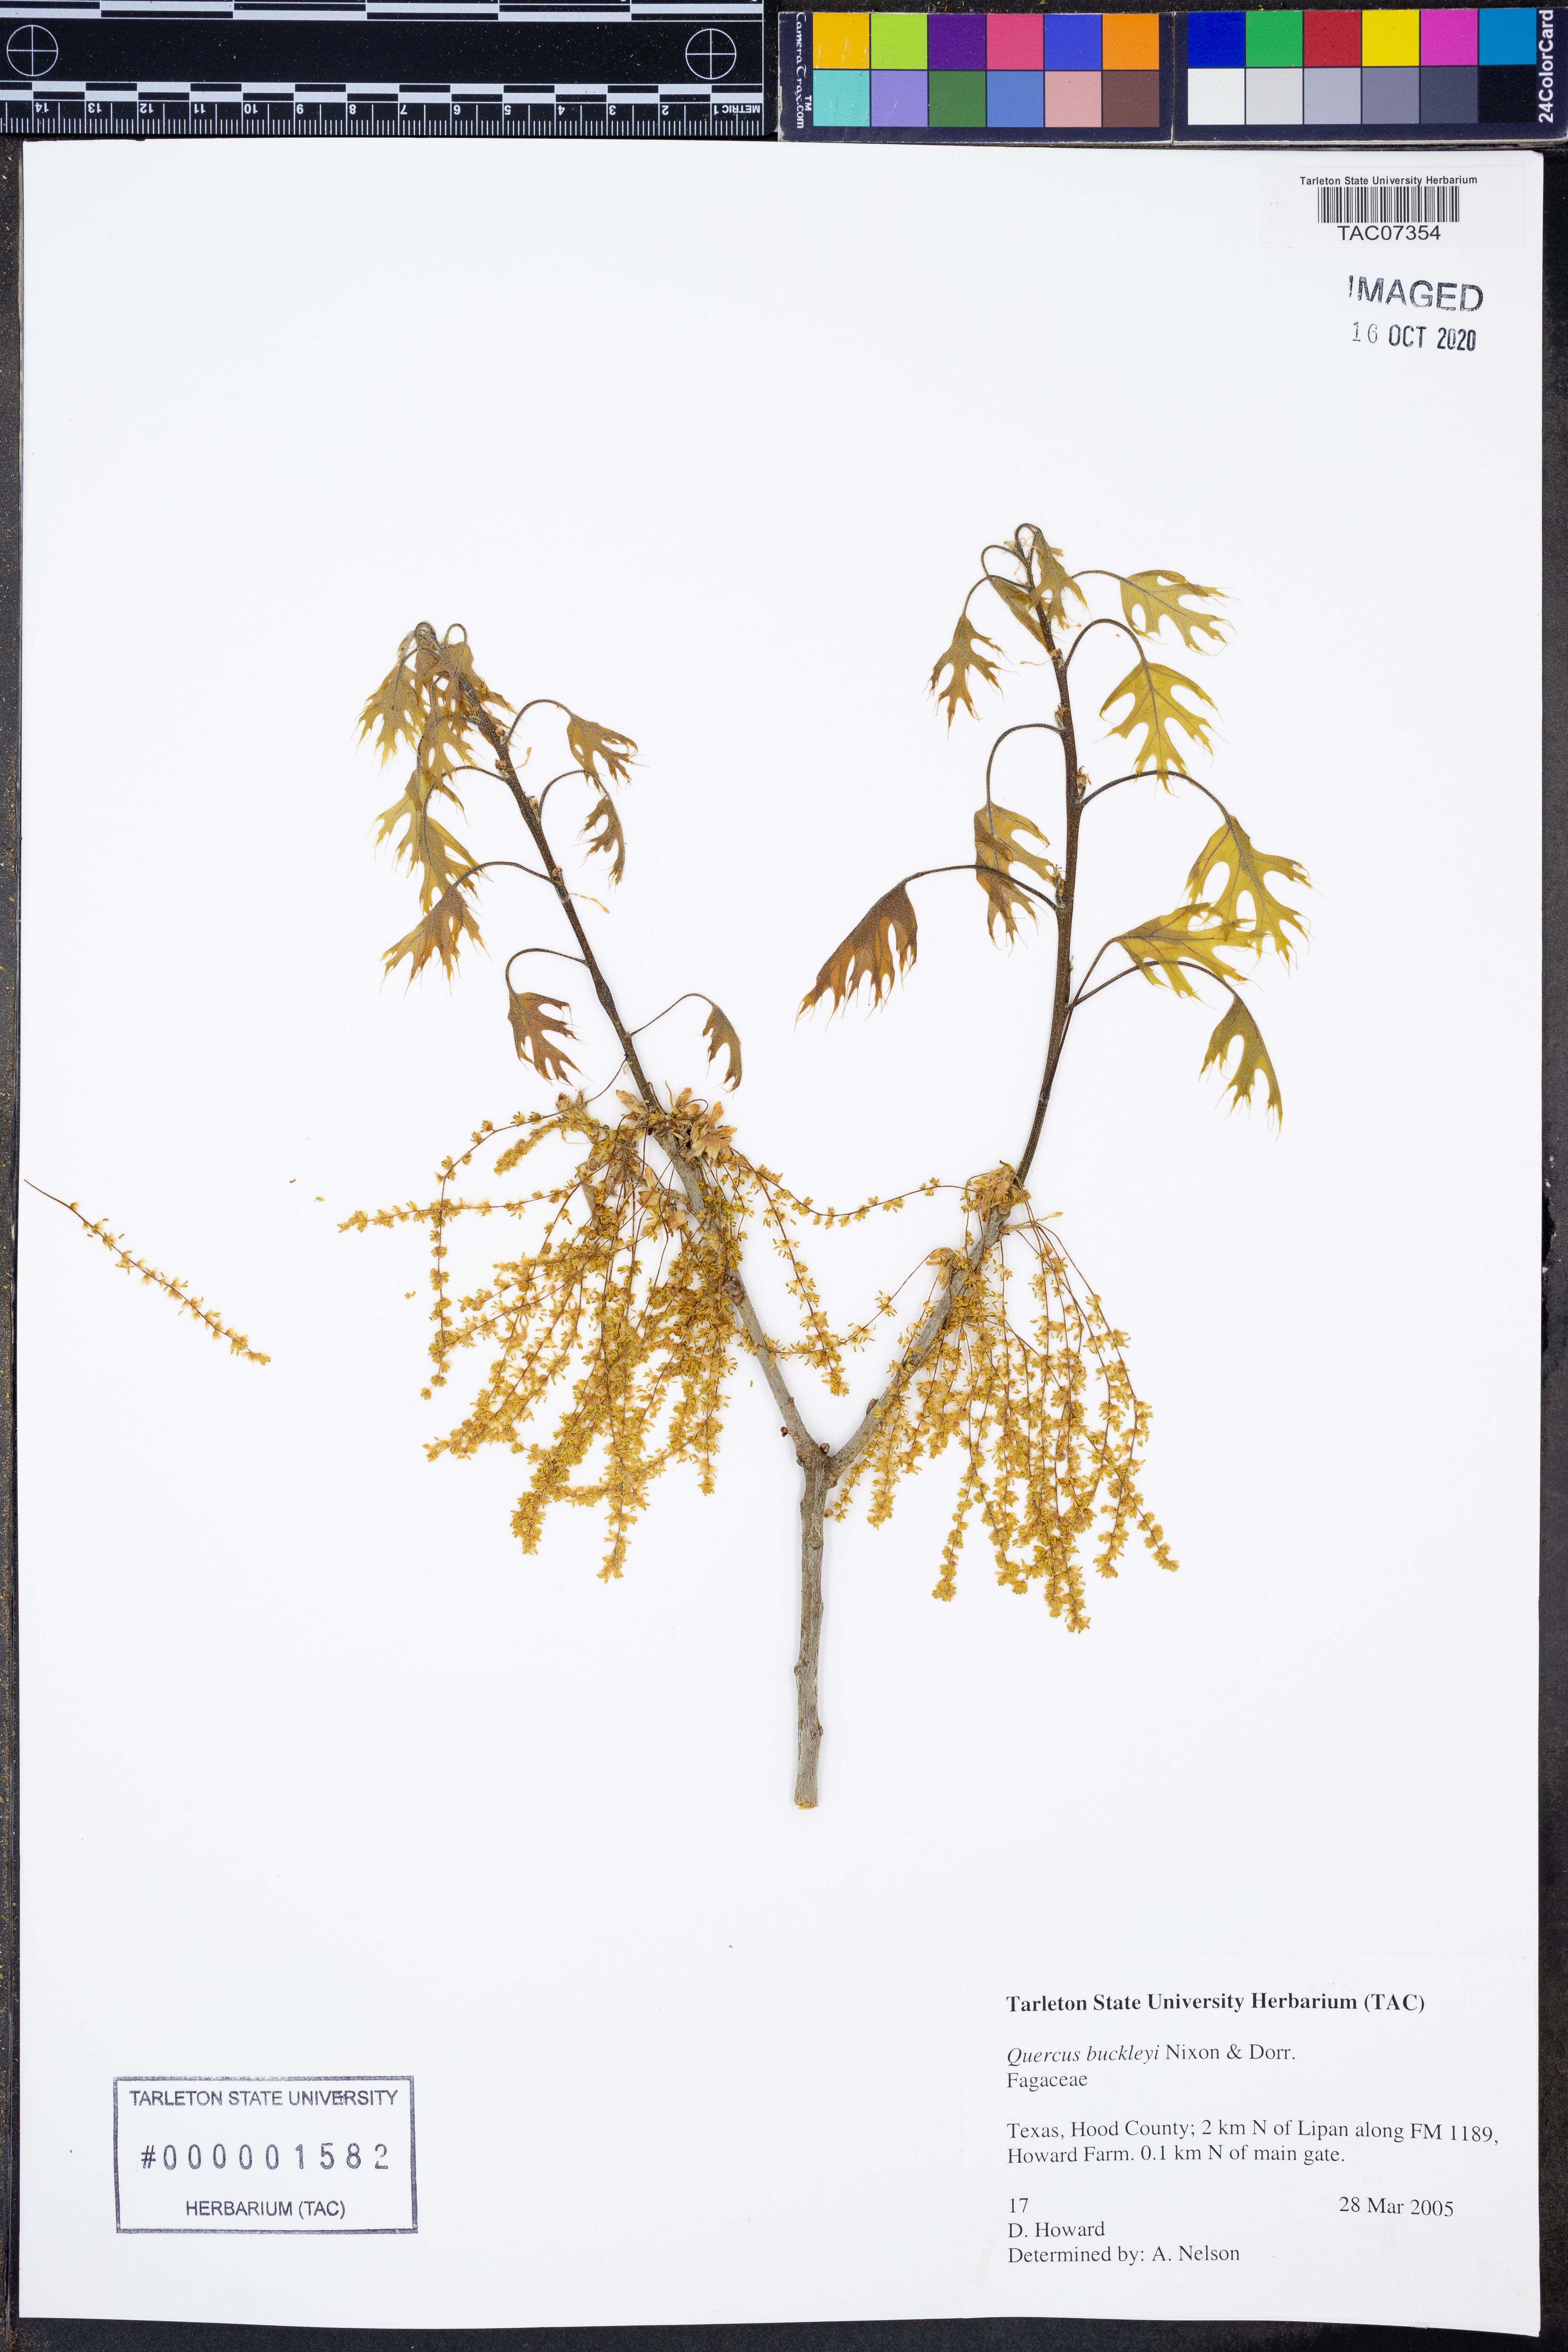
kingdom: Plantae
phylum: Tracheophyta
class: Magnoliopsida
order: Fagales
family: Fagaceae
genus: Quercus
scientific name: Quercus buckleyi
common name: Buckley oak
